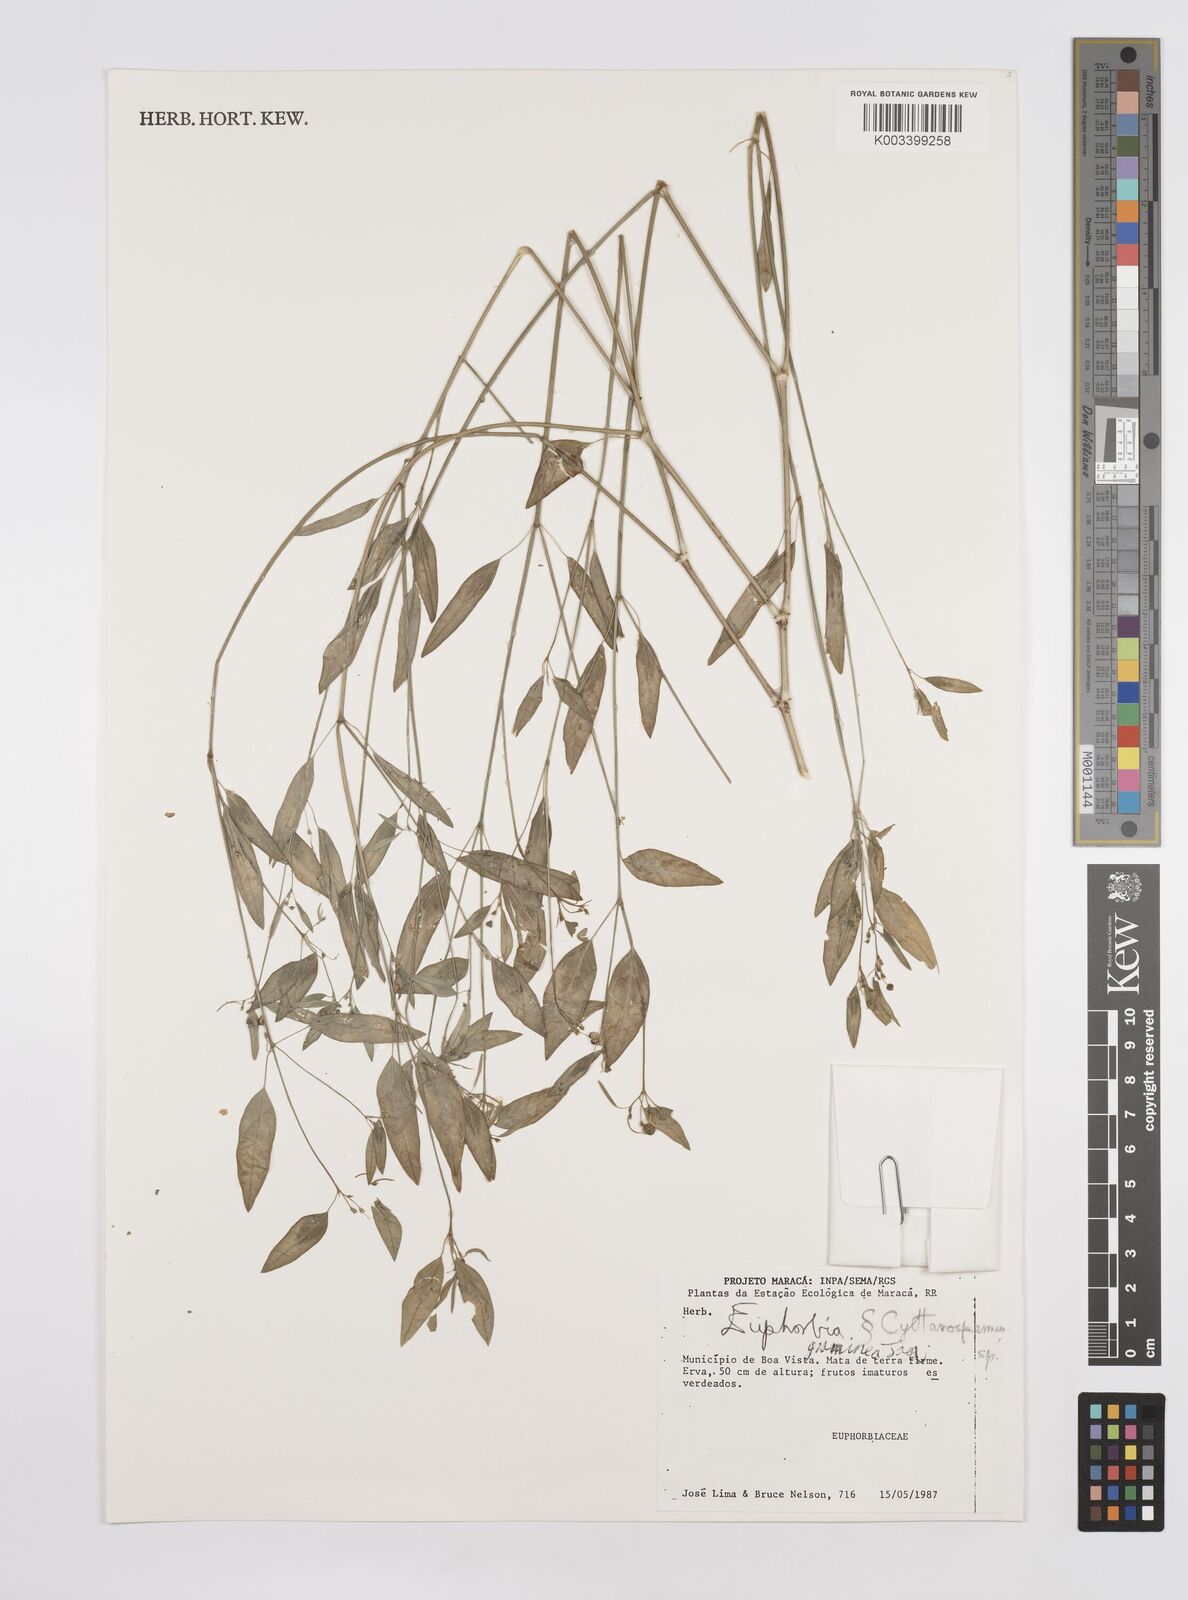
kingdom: Plantae
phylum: Tracheophyta
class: Magnoliopsida
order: Malpighiales
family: Euphorbiaceae
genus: Euphorbia
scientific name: Euphorbia graminea
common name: Grassleaf spurge
